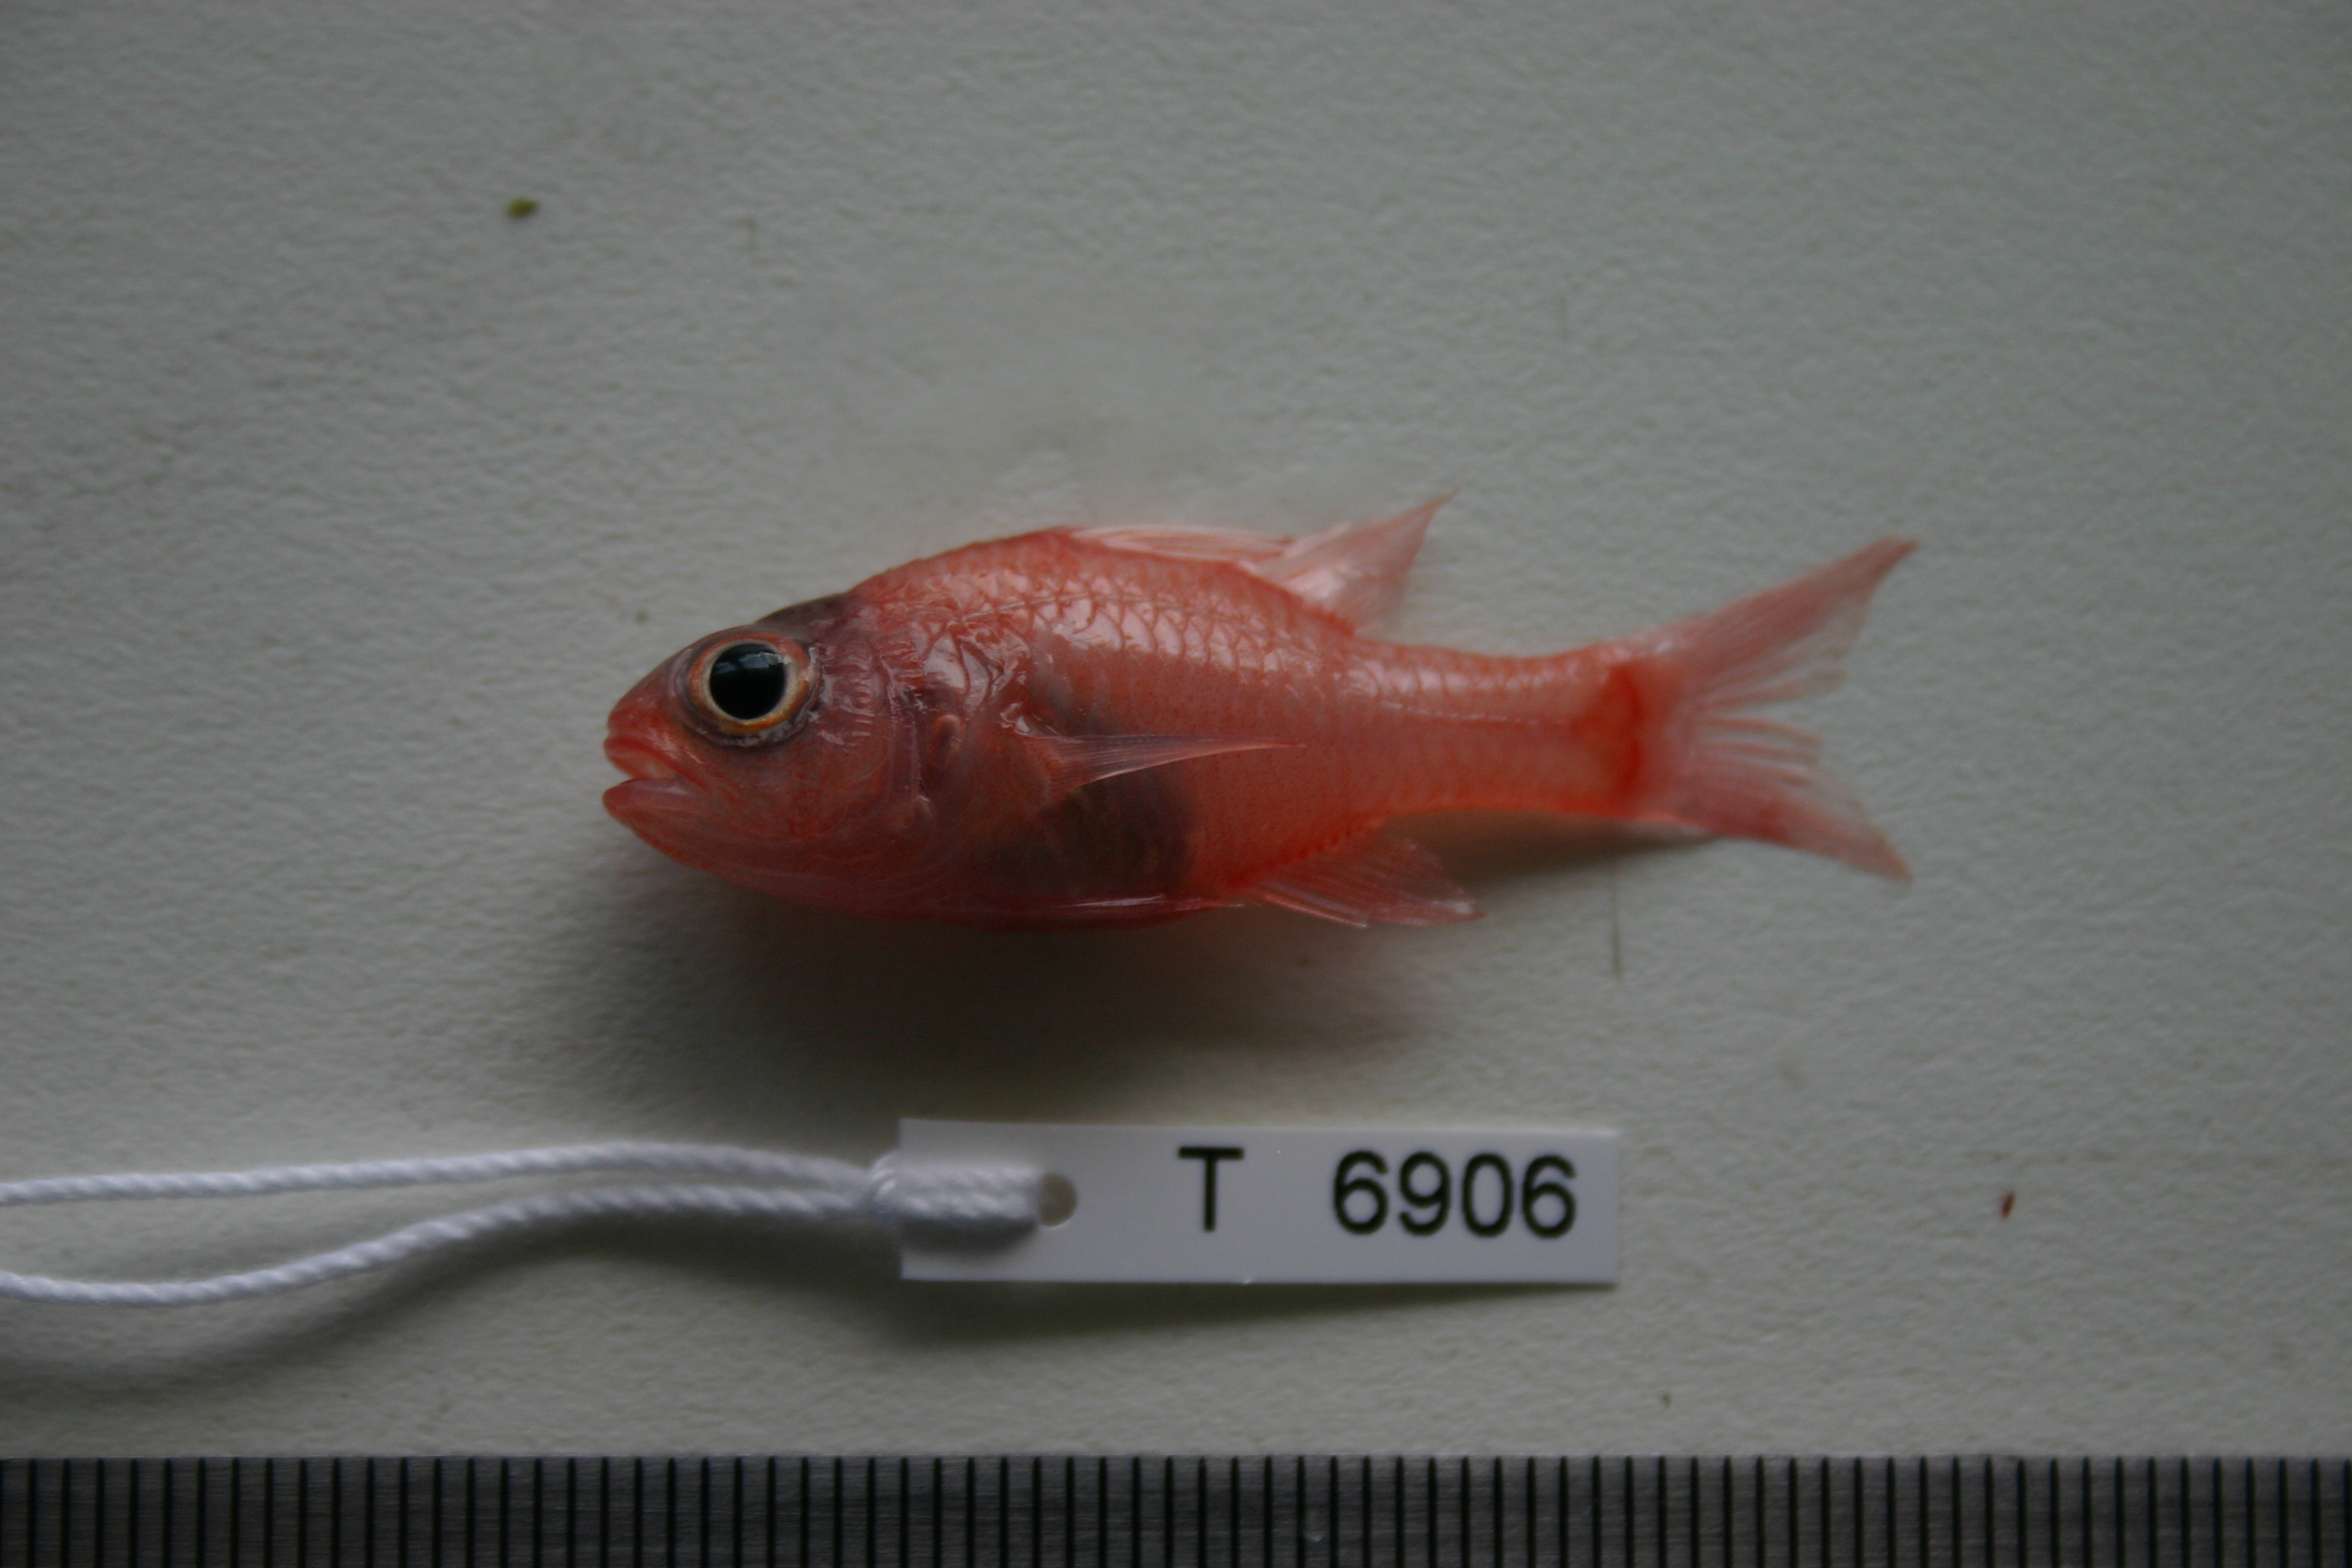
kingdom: Animalia
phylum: Chordata
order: Perciformes
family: Apogonidae
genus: Apogon
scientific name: Apogon campbelli
